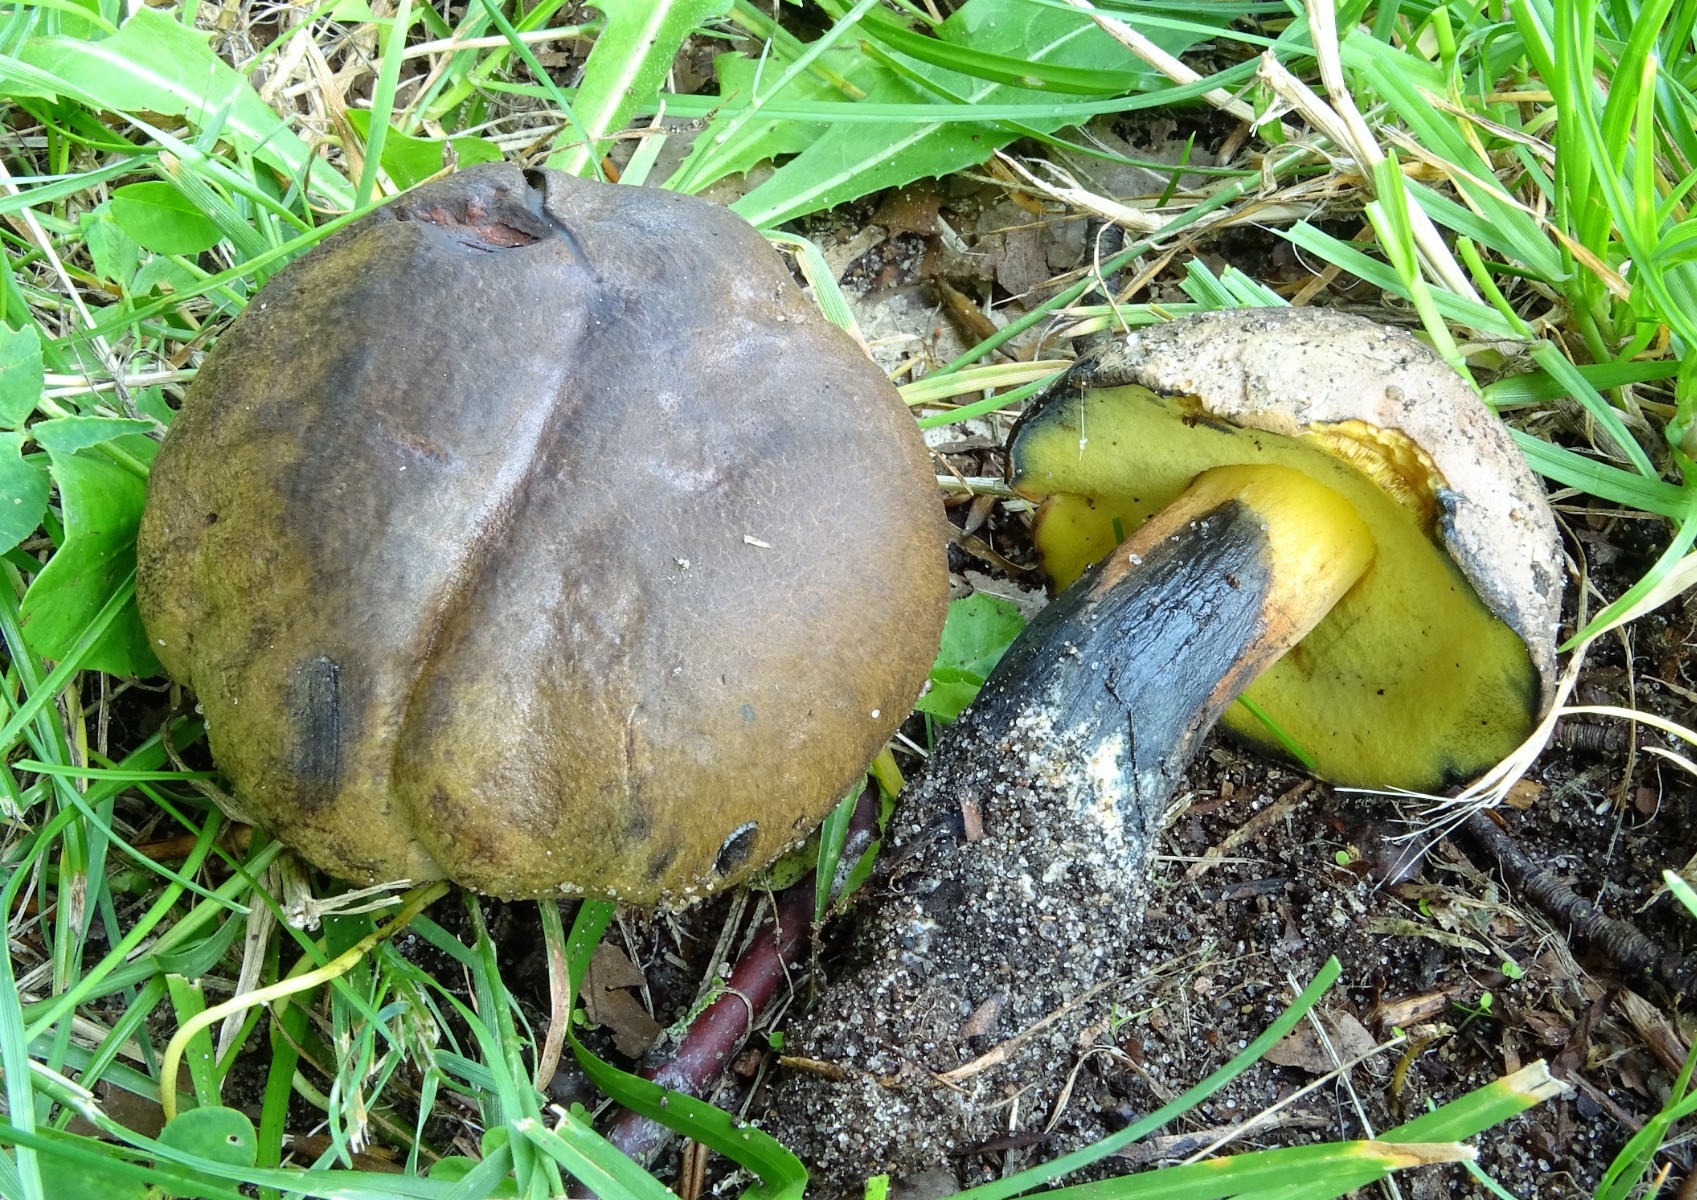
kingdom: Fungi
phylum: Basidiomycota
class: Agaricomycetes
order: Boletales
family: Boletaceae
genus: Cyanoboletus
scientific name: Cyanoboletus pulverulentus
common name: sortblånende rørhat
